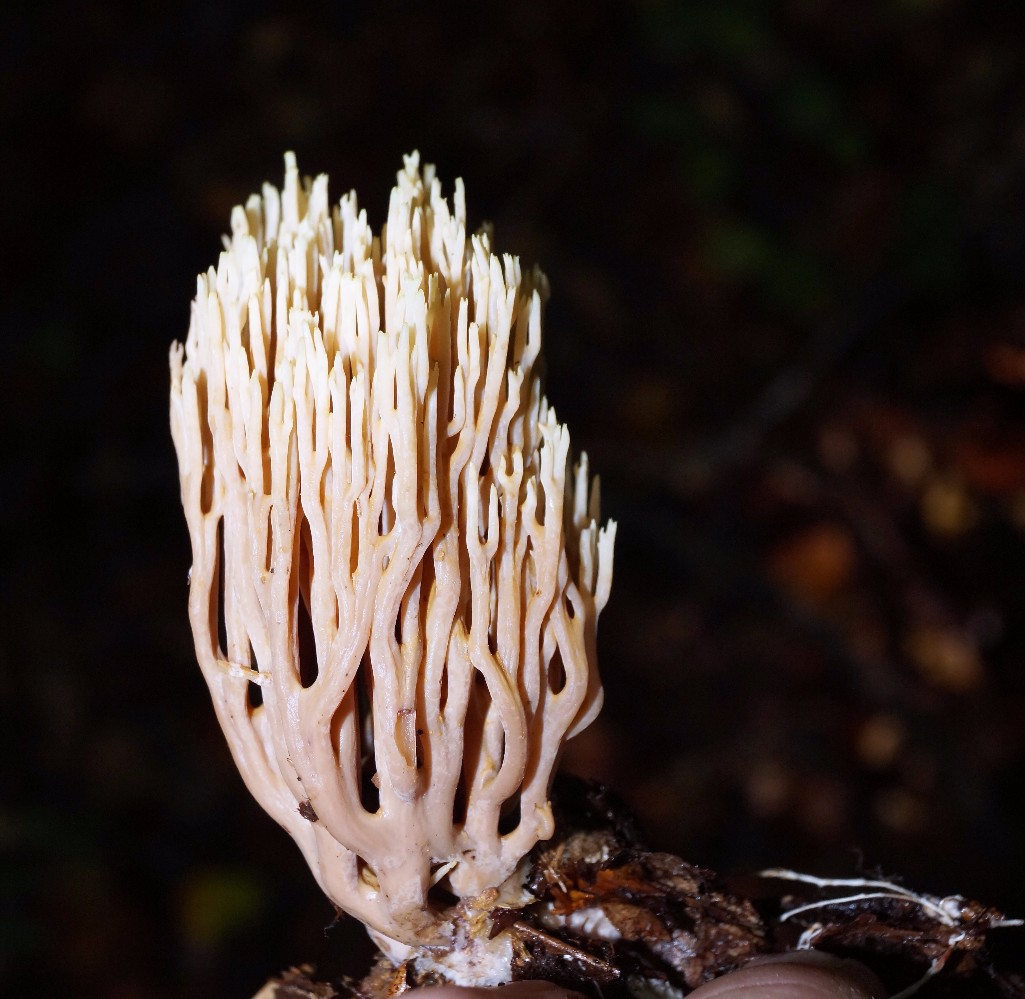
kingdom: Fungi
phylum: Basidiomycota
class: Agaricomycetes
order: Gomphales
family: Gomphaceae
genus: Ramaria
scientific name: Ramaria stricta
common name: rank koralsvamp
